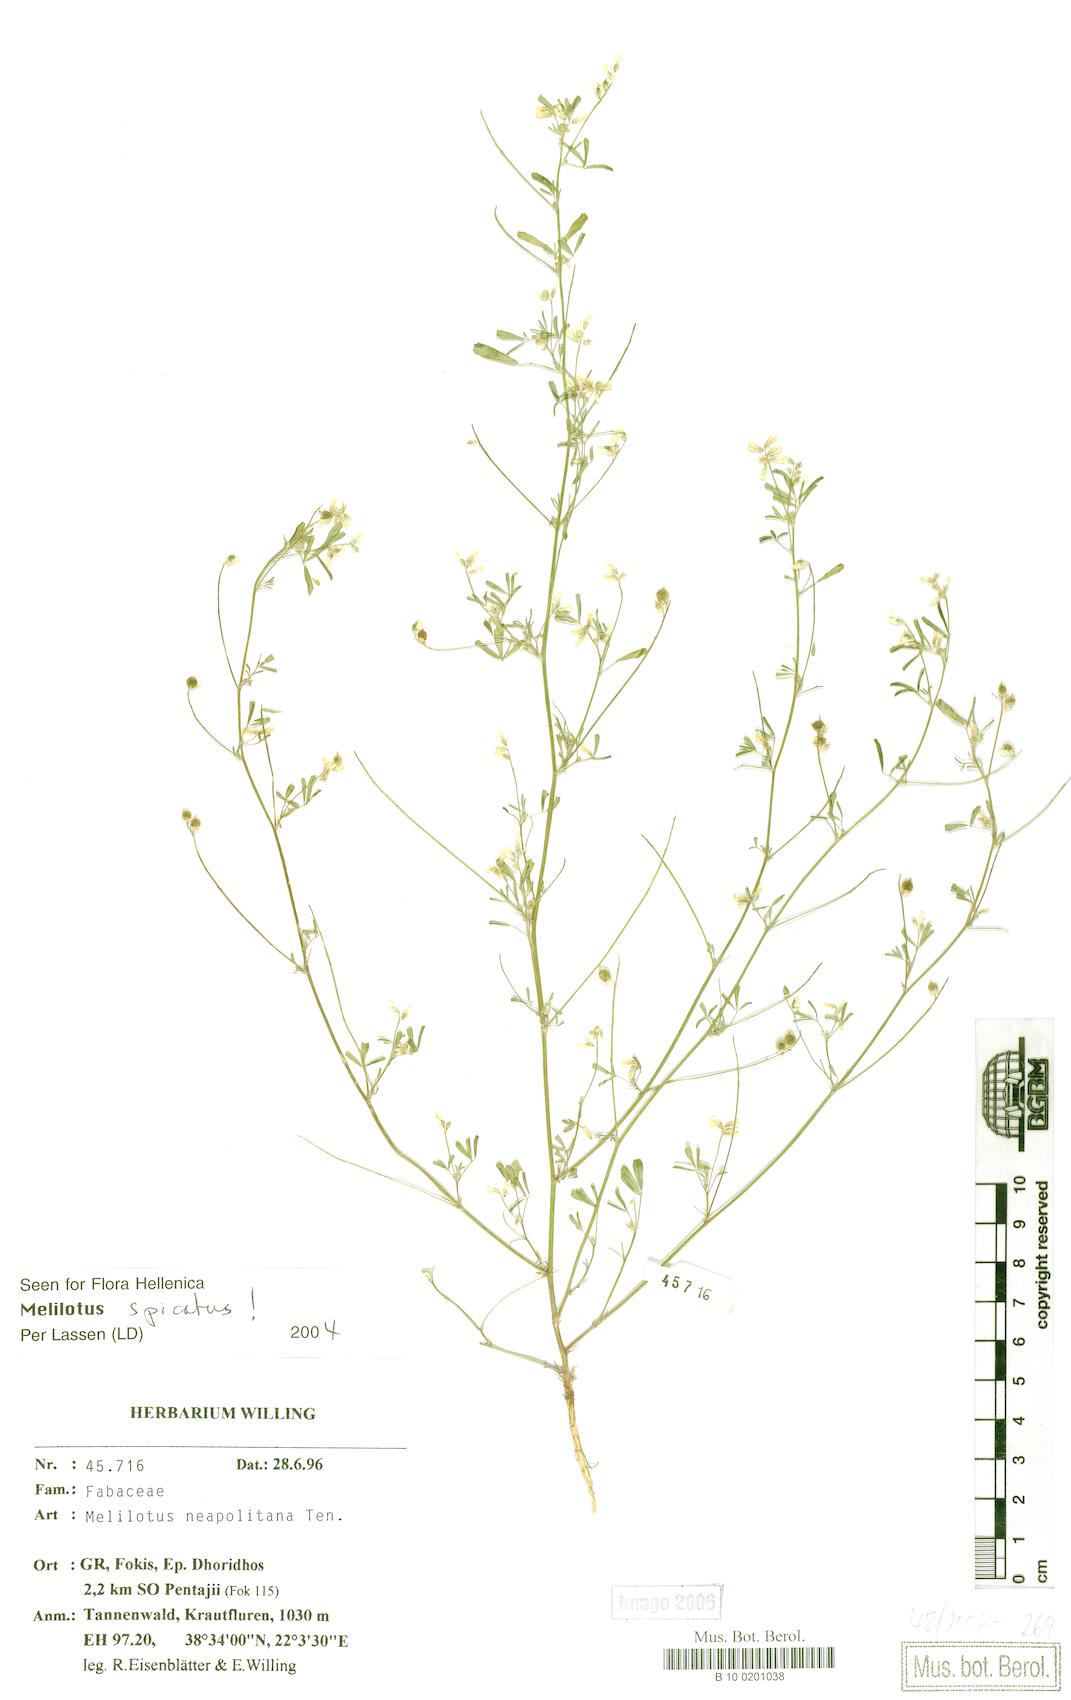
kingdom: Plantae
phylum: Tracheophyta
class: Magnoliopsida
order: Fabales
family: Fabaceae
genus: Melilotus
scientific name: Melilotus neapolitanus
